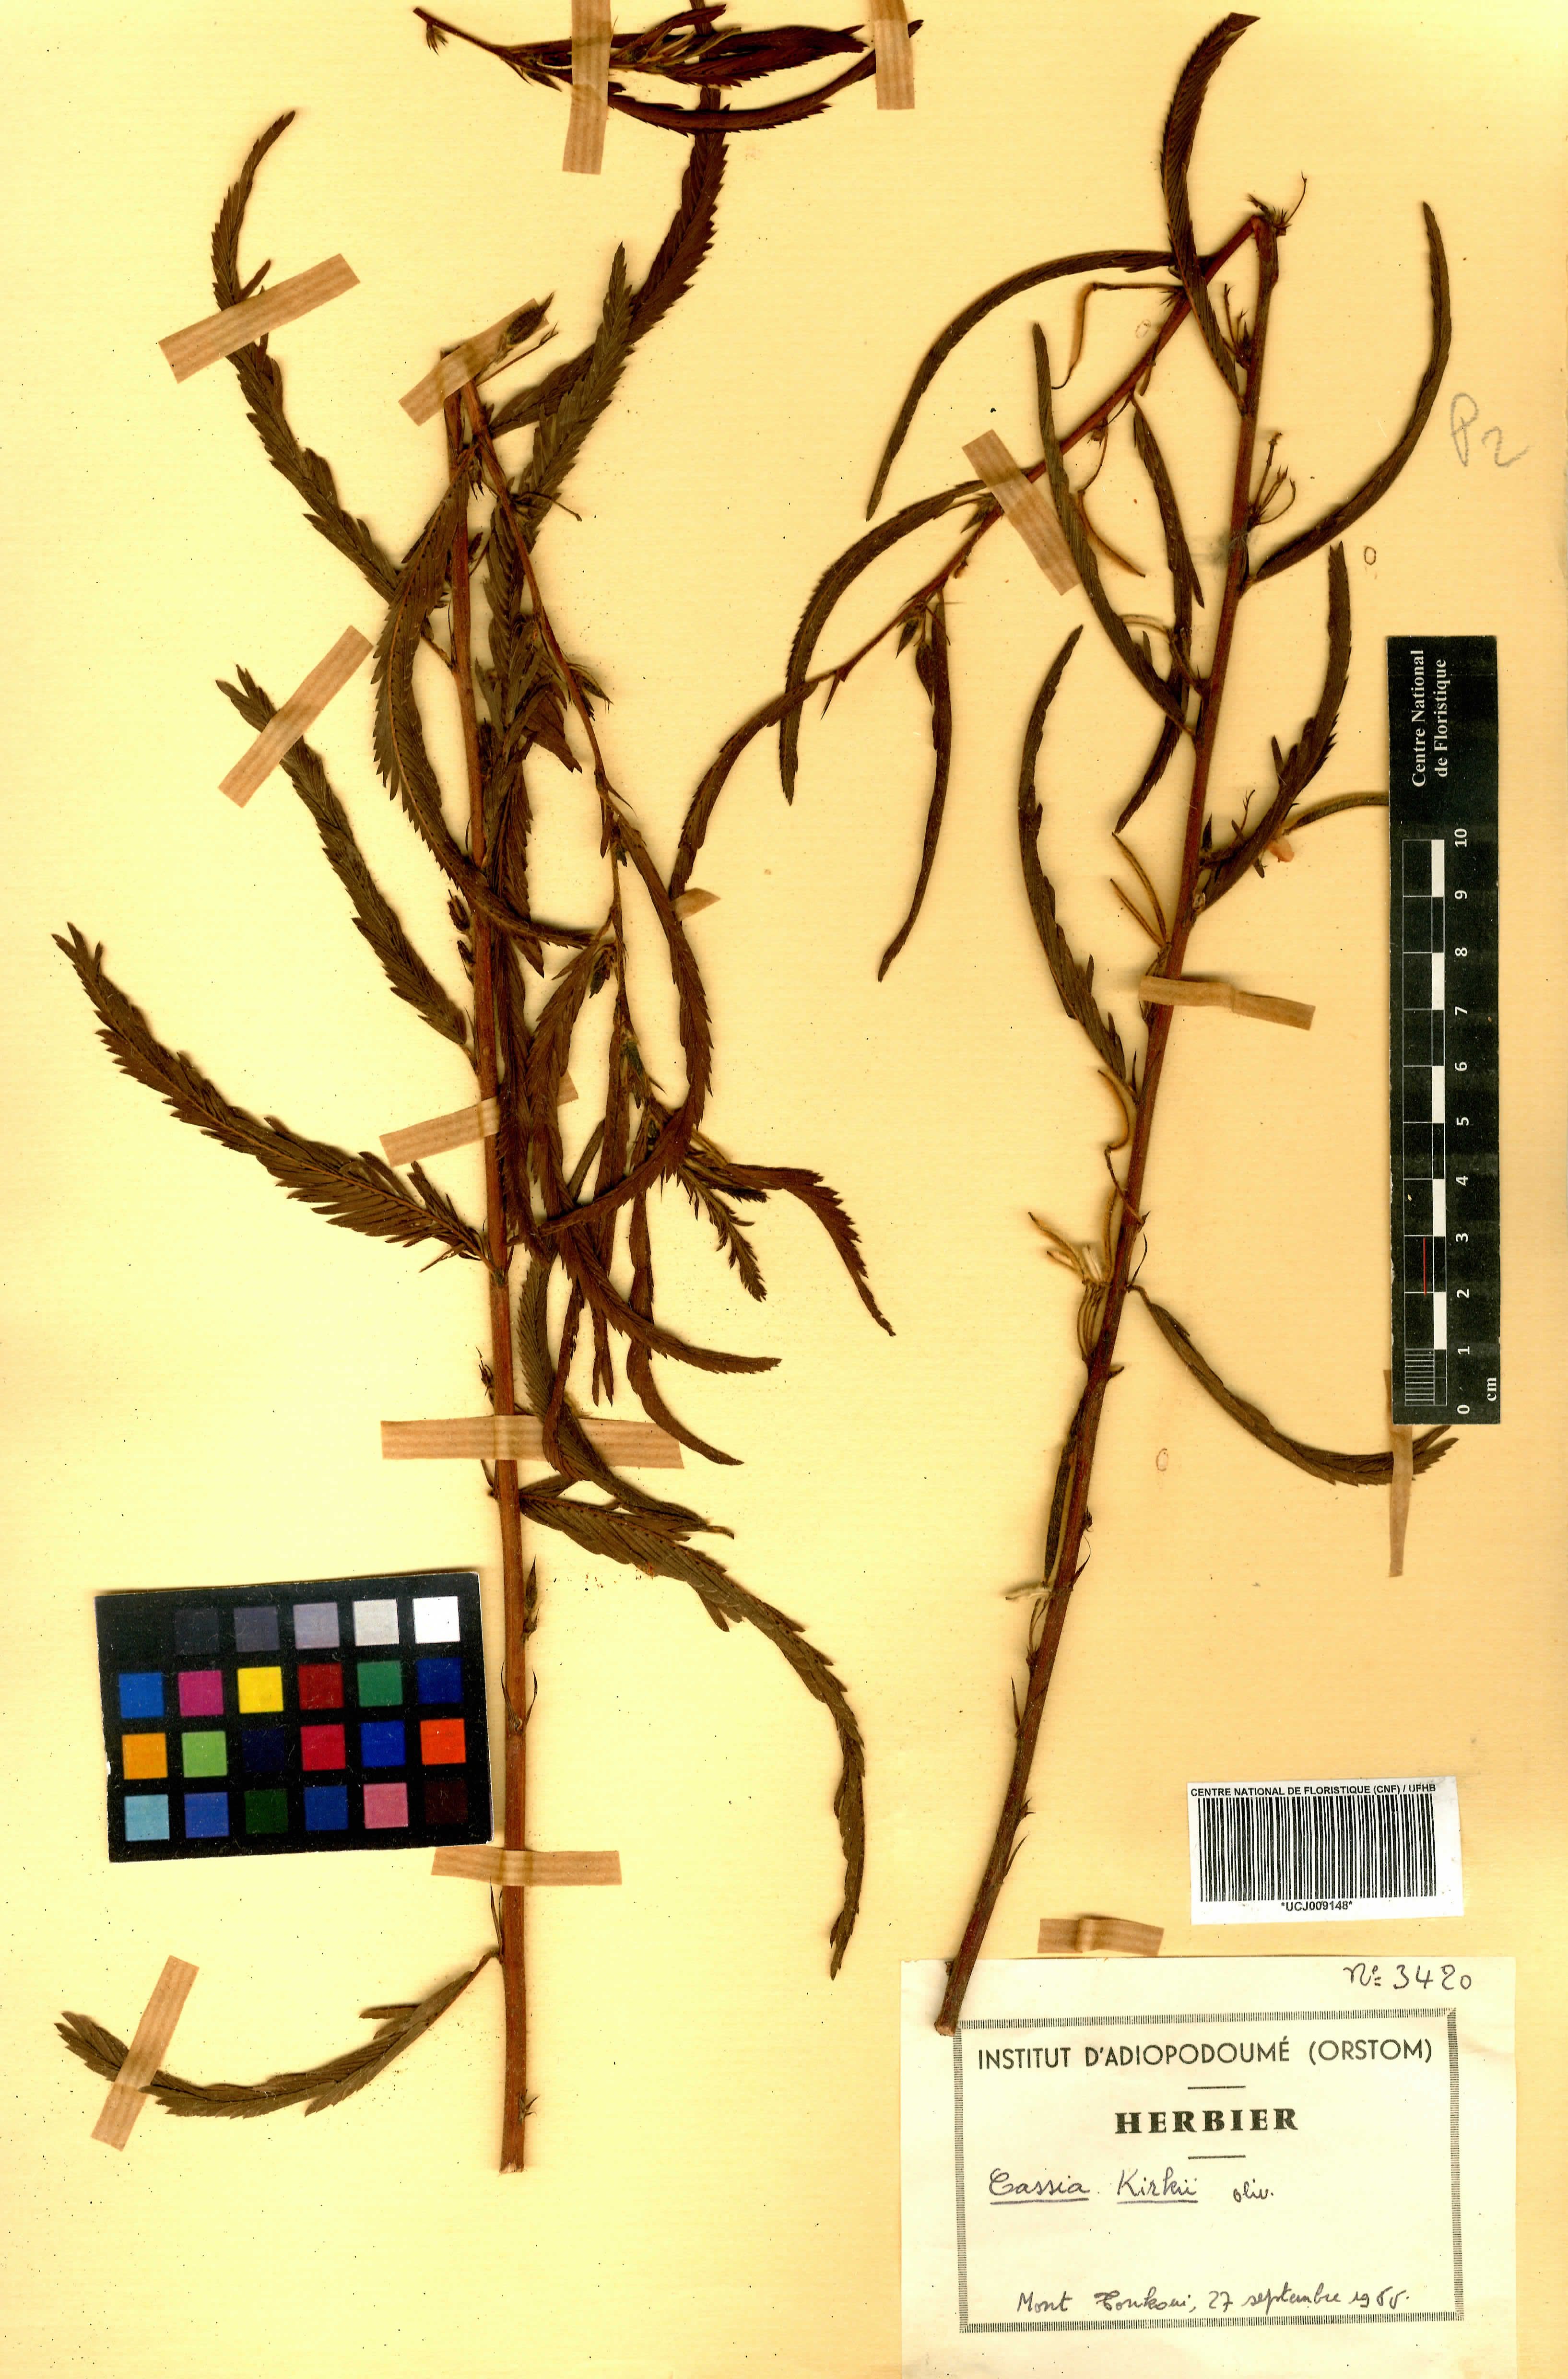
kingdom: Plantae
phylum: Tracheophyta
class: Magnoliopsida
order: Fabales
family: Fabaceae
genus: Chamaecrista
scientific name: Chamaecrista kirkii
